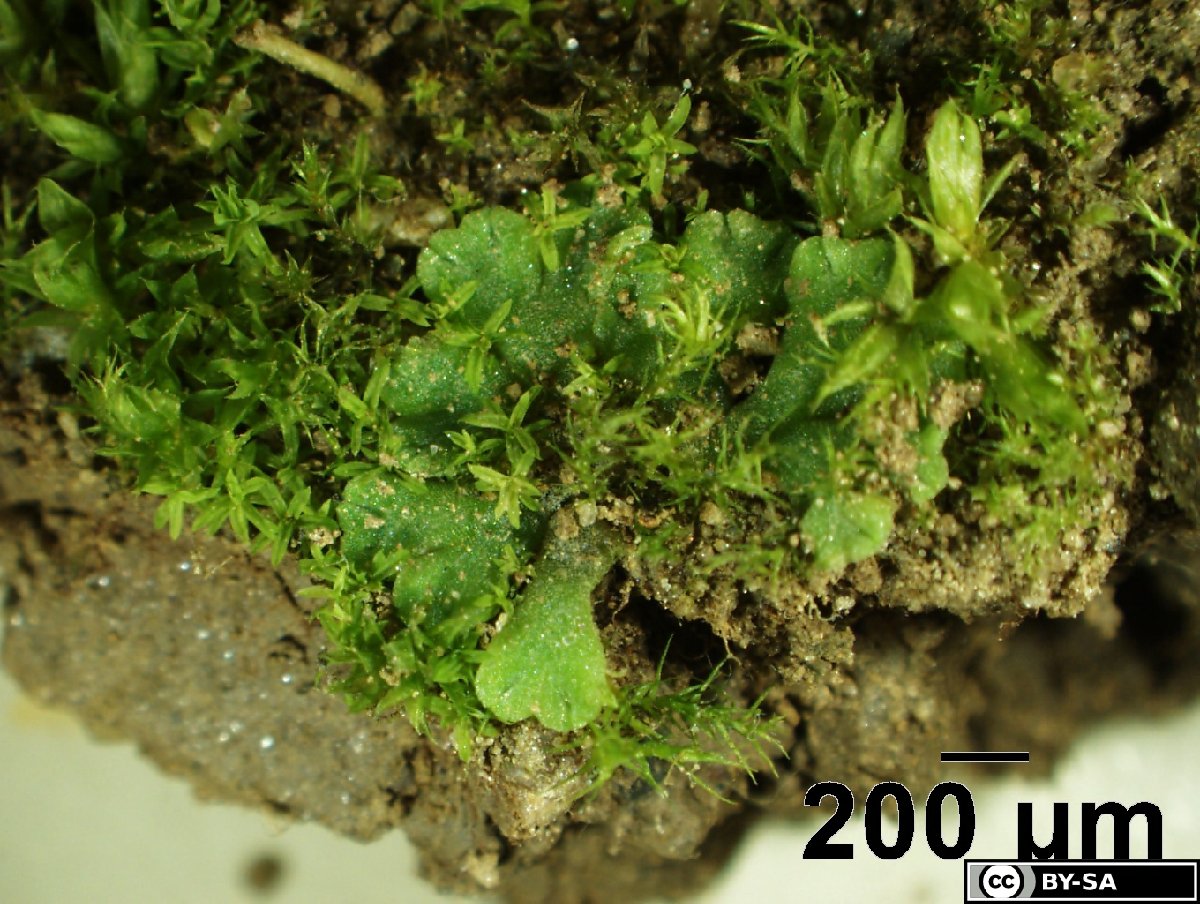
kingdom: Plantae
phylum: Marchantiophyta
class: Marchantiopsida
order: Marchantiales
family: Ricciaceae
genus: Riccia
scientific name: Riccia glauca
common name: Glaucous crystalwort
